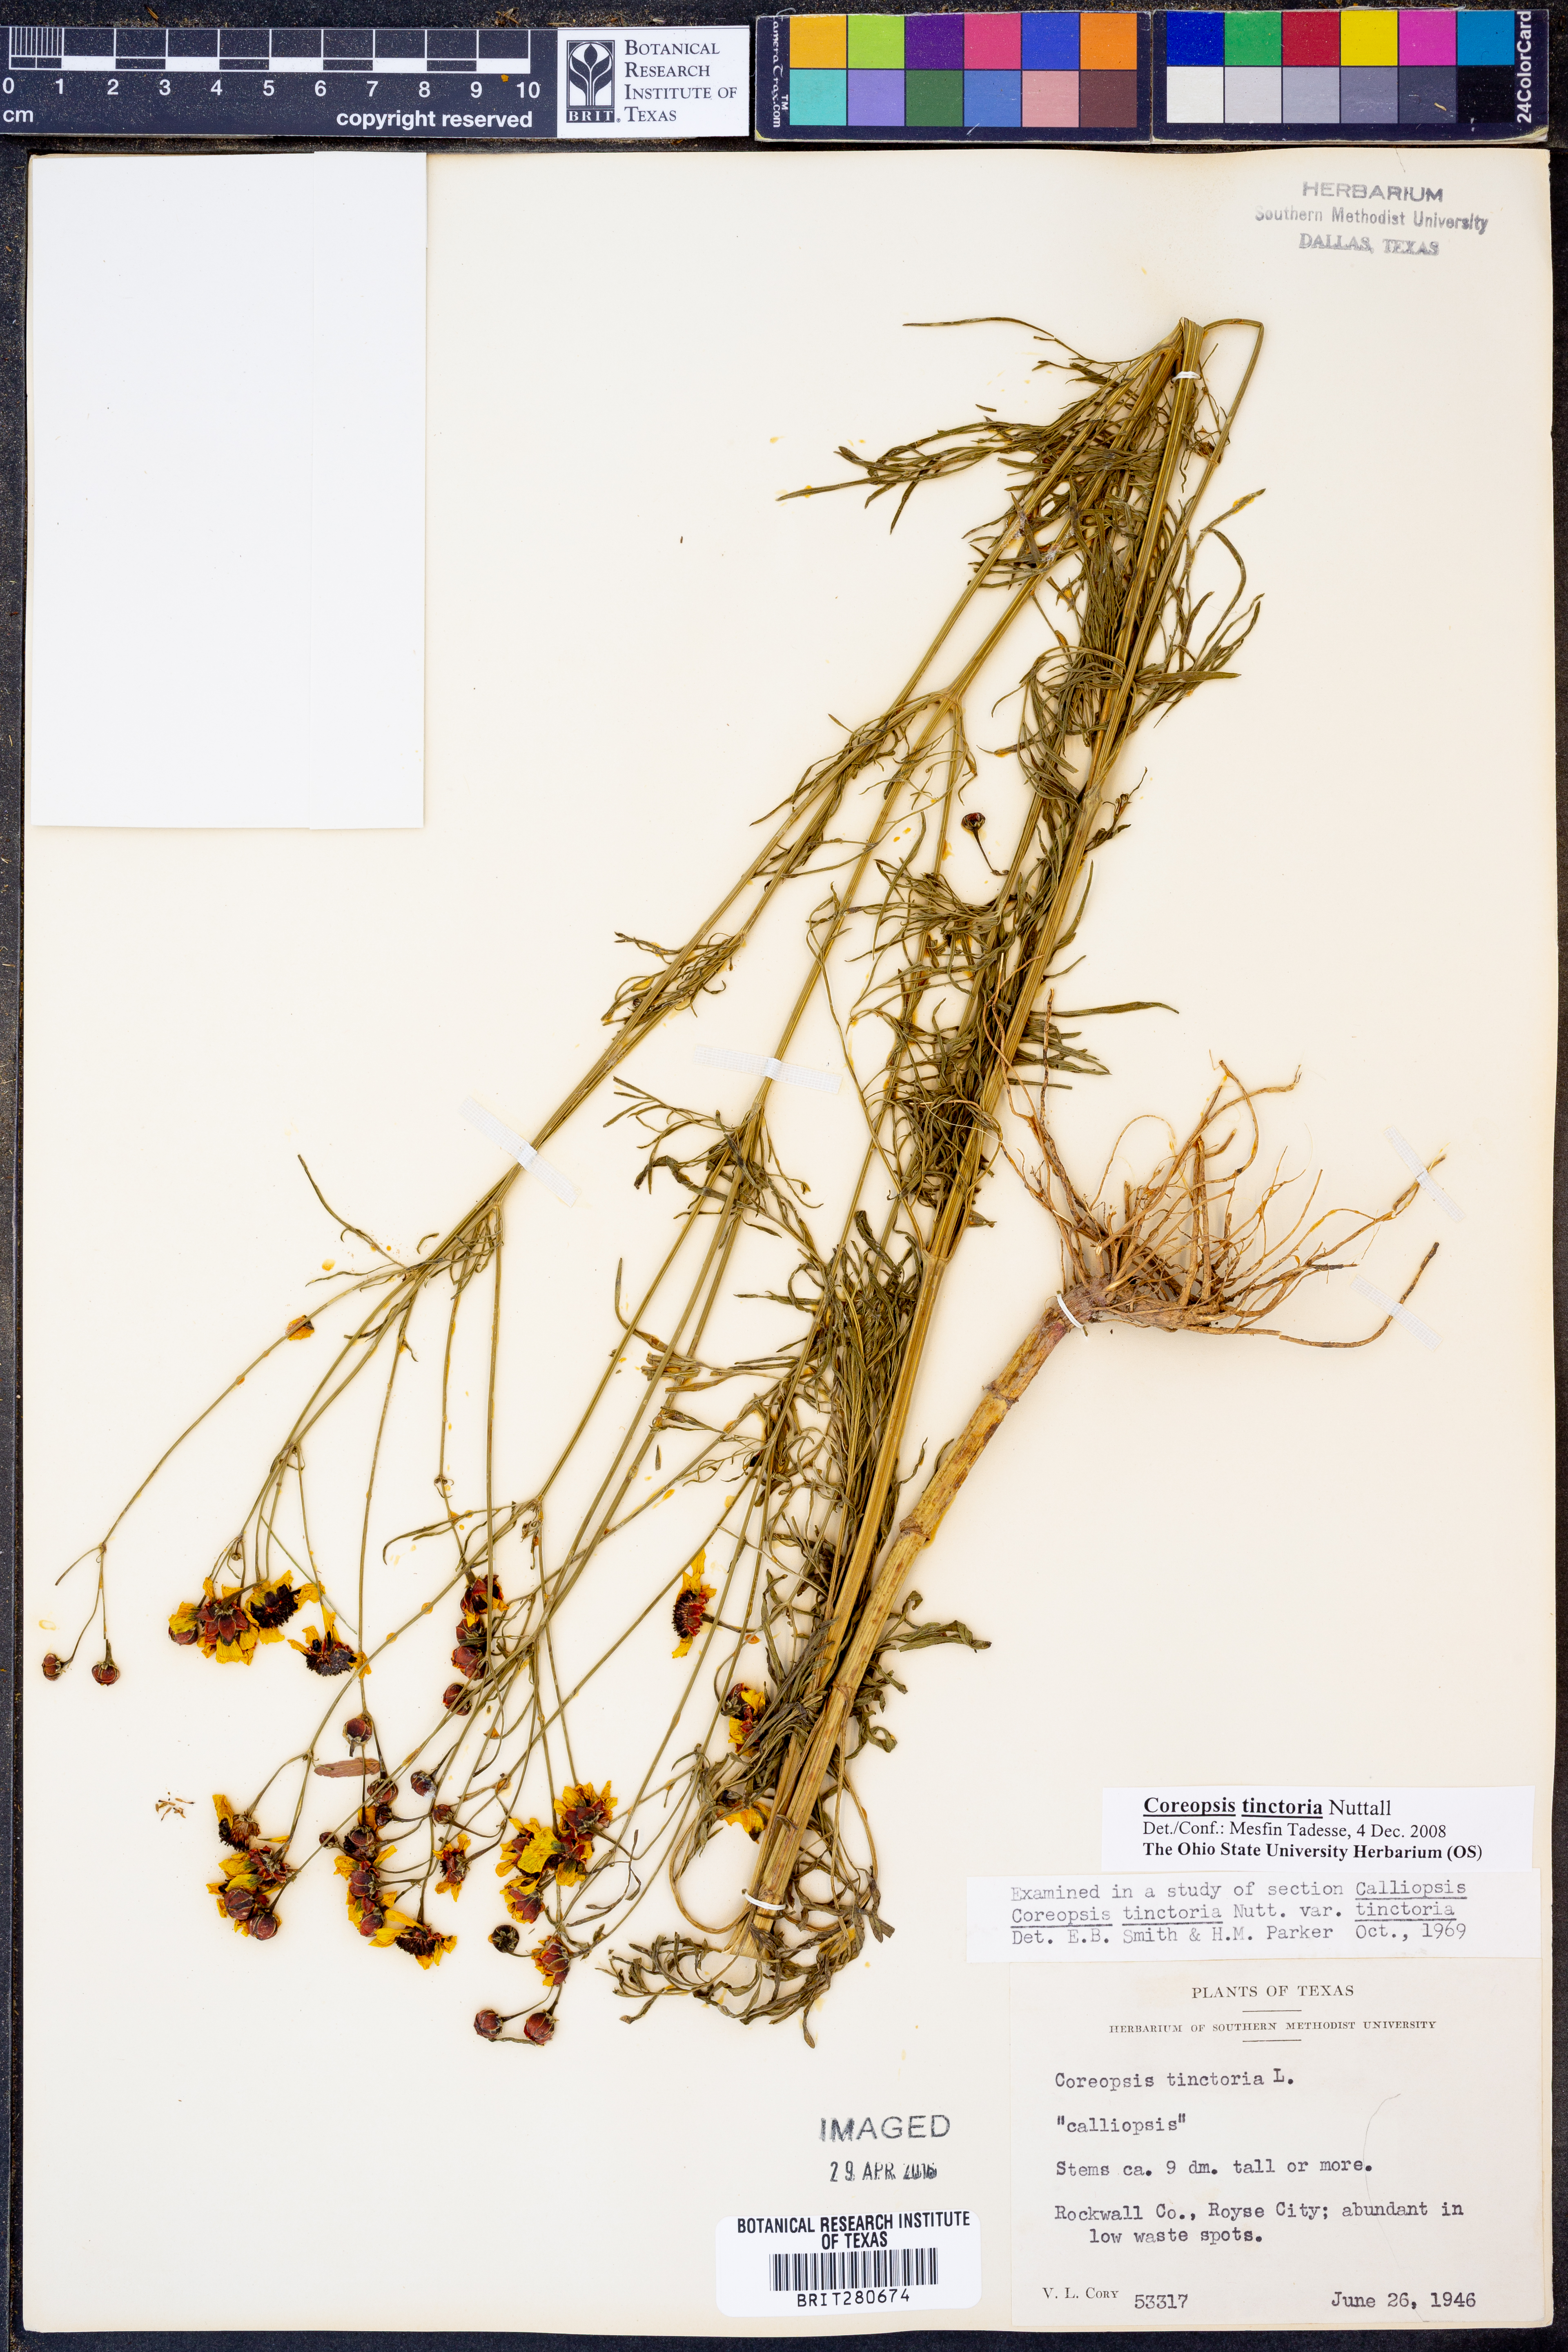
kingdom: Plantae
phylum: Tracheophyta
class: Magnoliopsida
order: Asterales
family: Asteraceae
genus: Coreopsis
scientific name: Coreopsis tinctoria
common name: Garden tickseed
